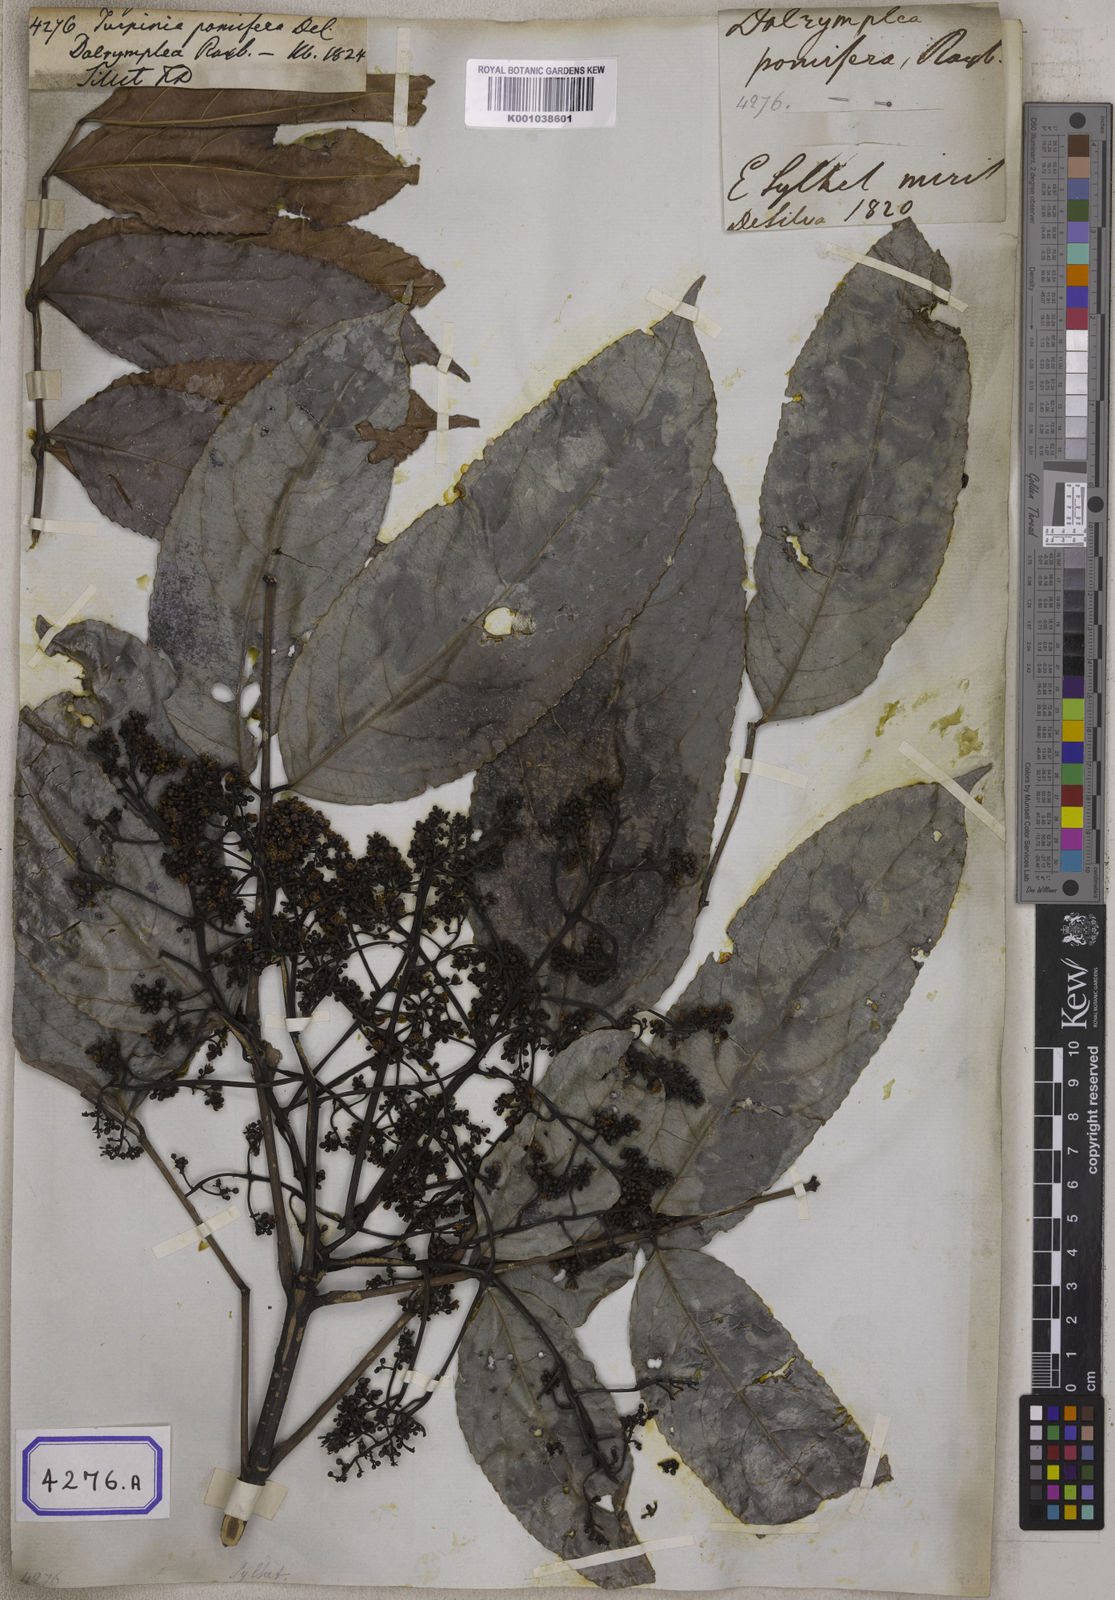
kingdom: Plantae
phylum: Tracheophyta
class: Magnoliopsida
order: Crossosomatales
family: Staphyleaceae
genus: Dalrympelea
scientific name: Dalrympelea pomifera
